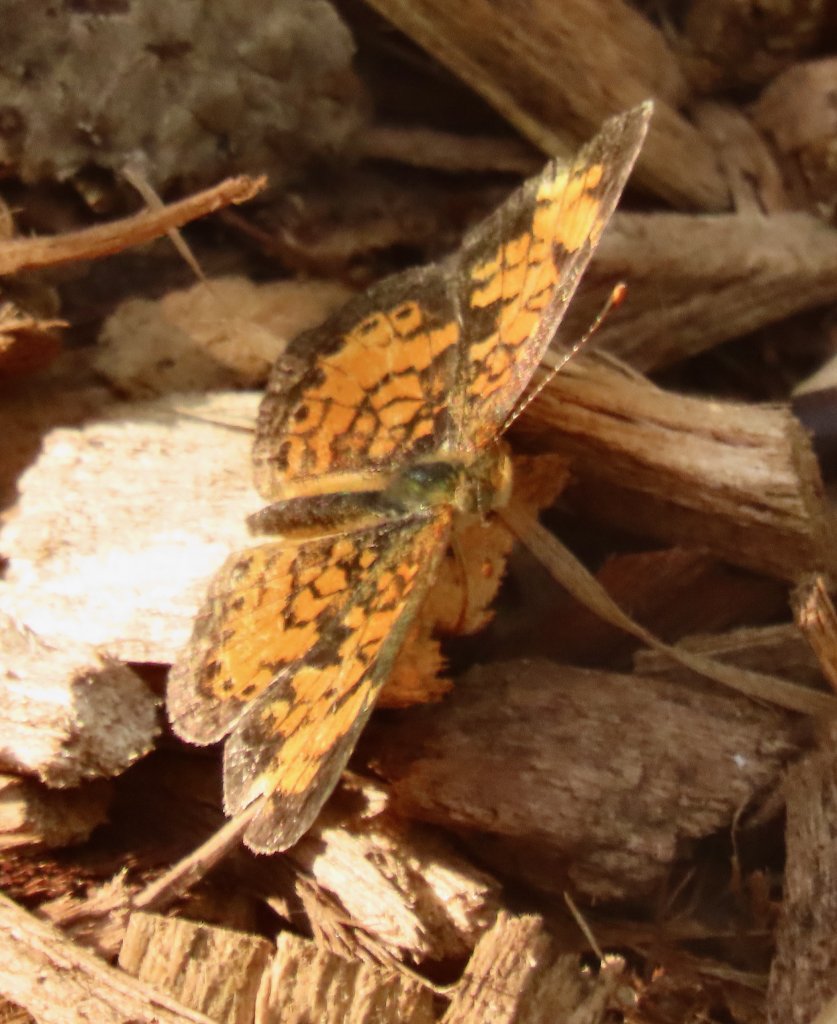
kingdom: Animalia
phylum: Arthropoda
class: Insecta
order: Lepidoptera
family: Nymphalidae
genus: Phyciodes
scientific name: Phyciodes tharos
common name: Pearl Crescent
